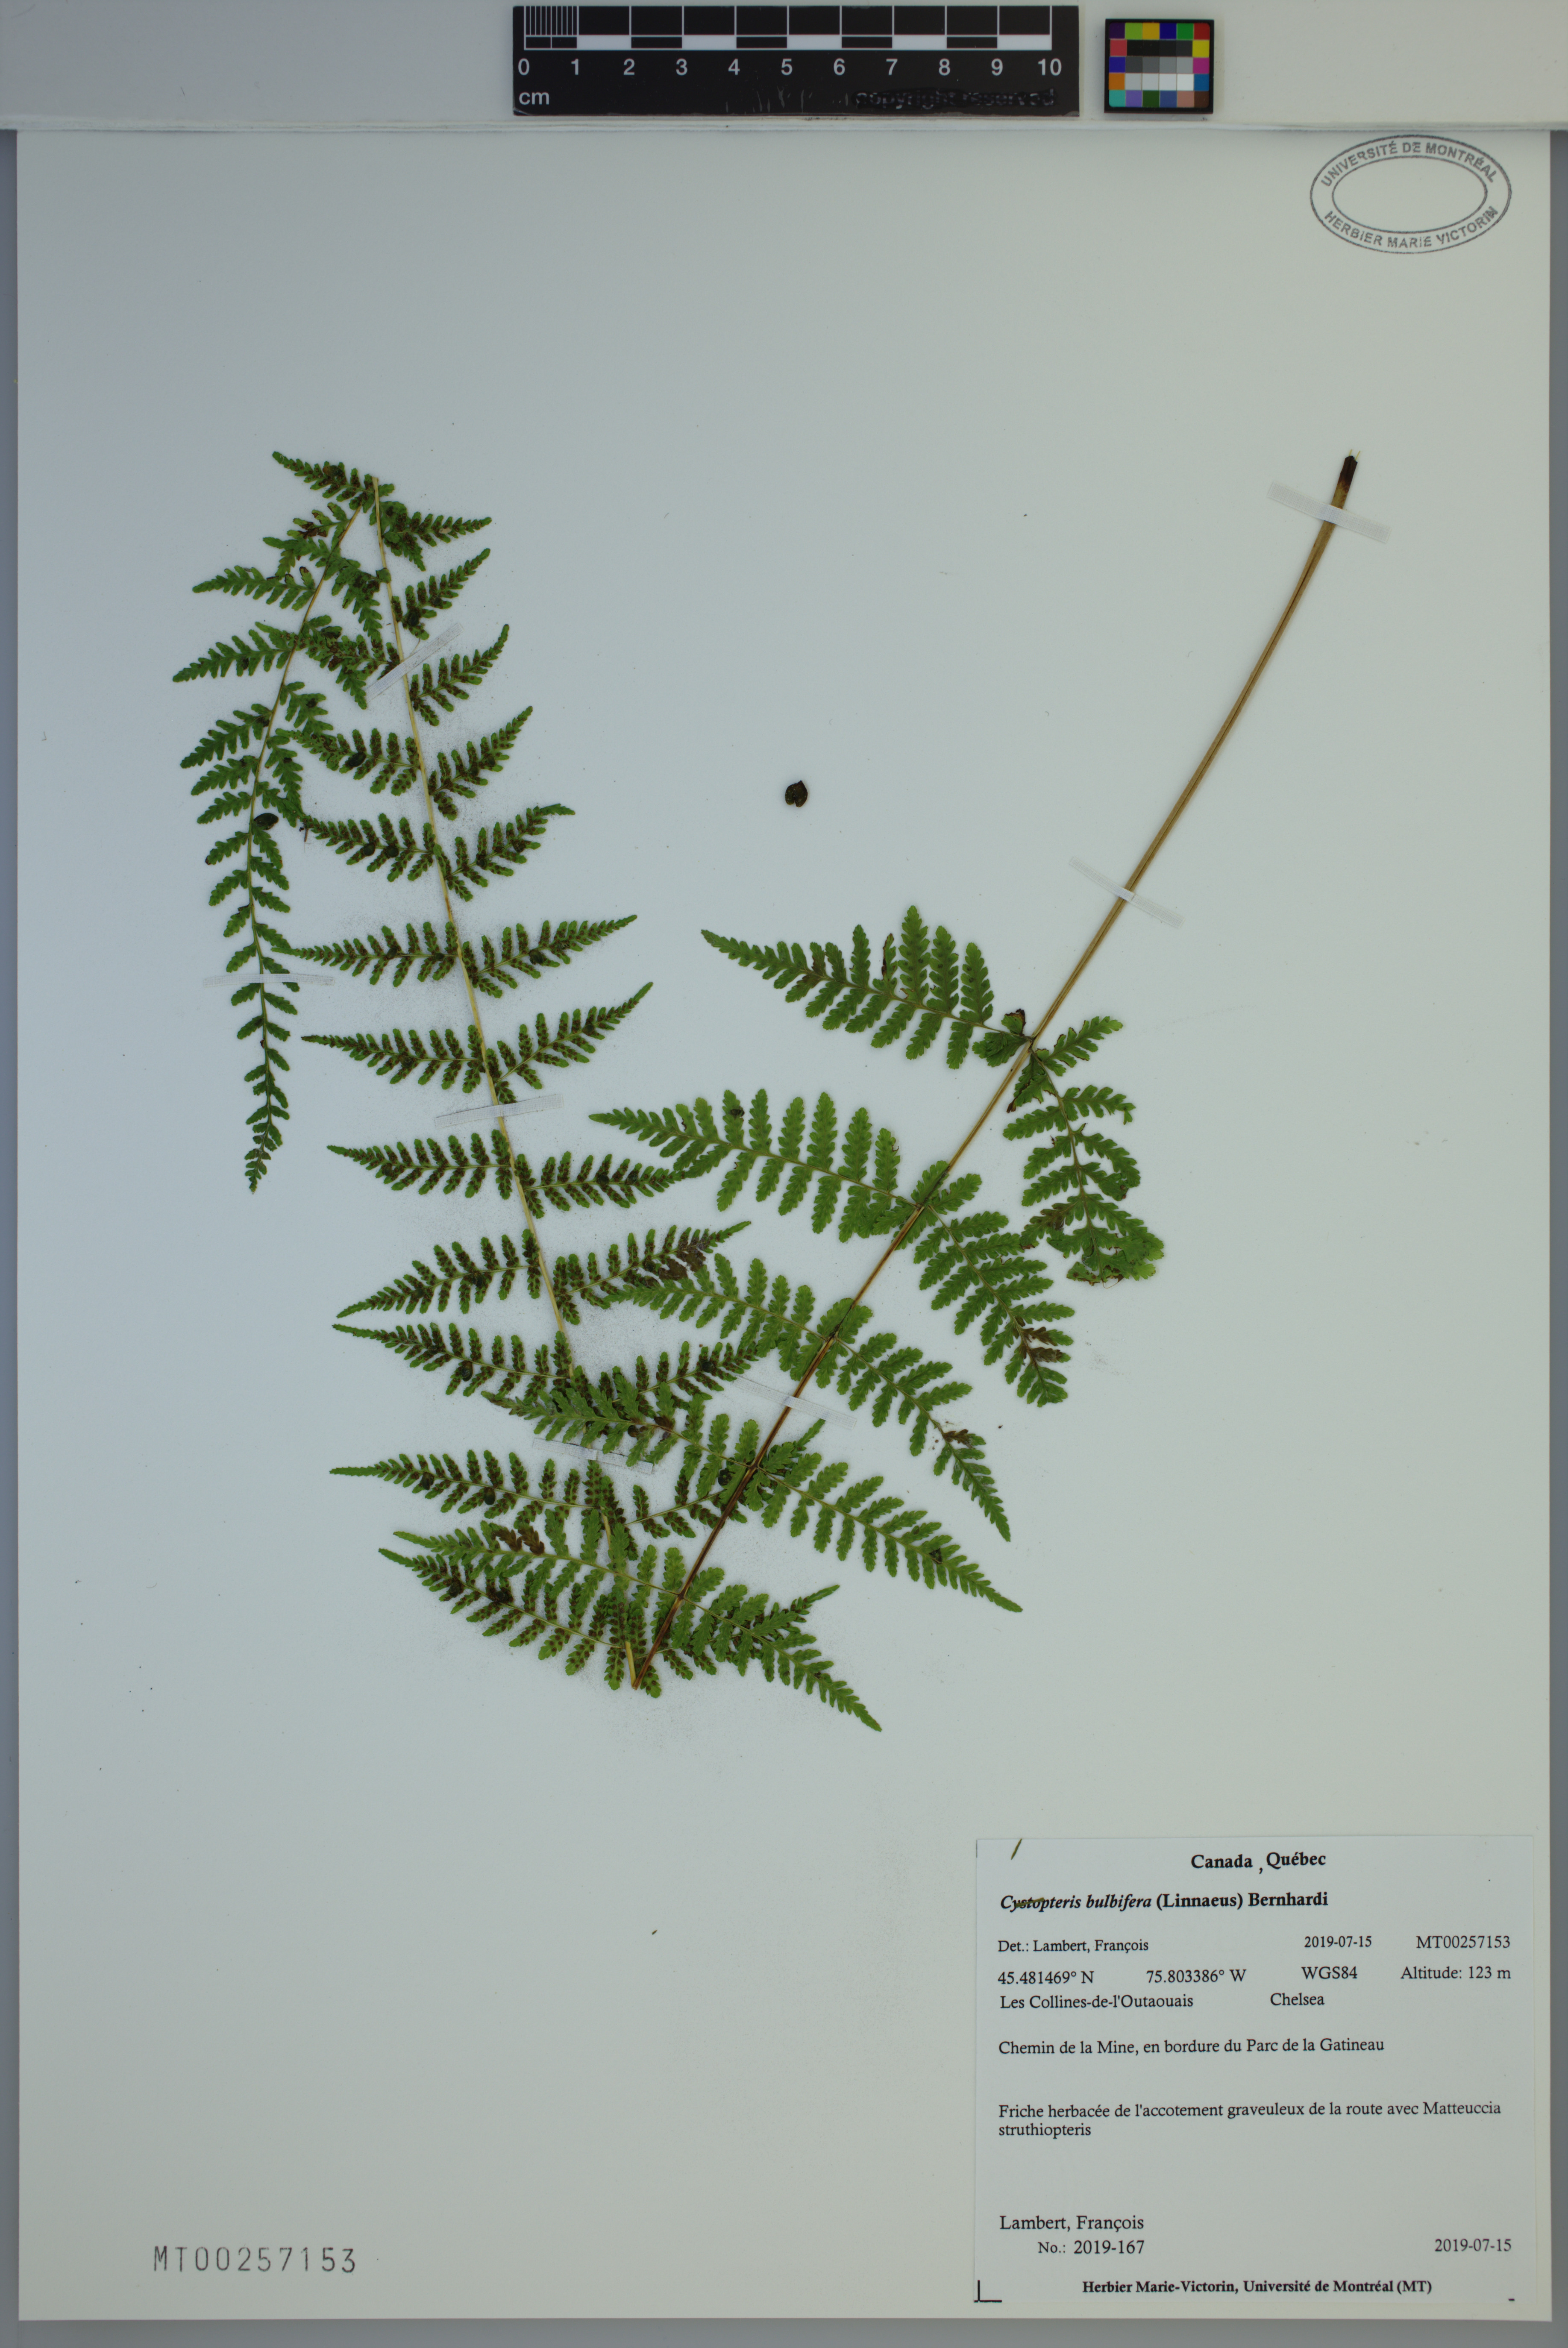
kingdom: Plantae
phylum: Tracheophyta
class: Polypodiopsida
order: Polypodiales
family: Cystopteridaceae
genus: Cystopteris
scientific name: Cystopteris bulbifera
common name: Bulblet bladder fern
